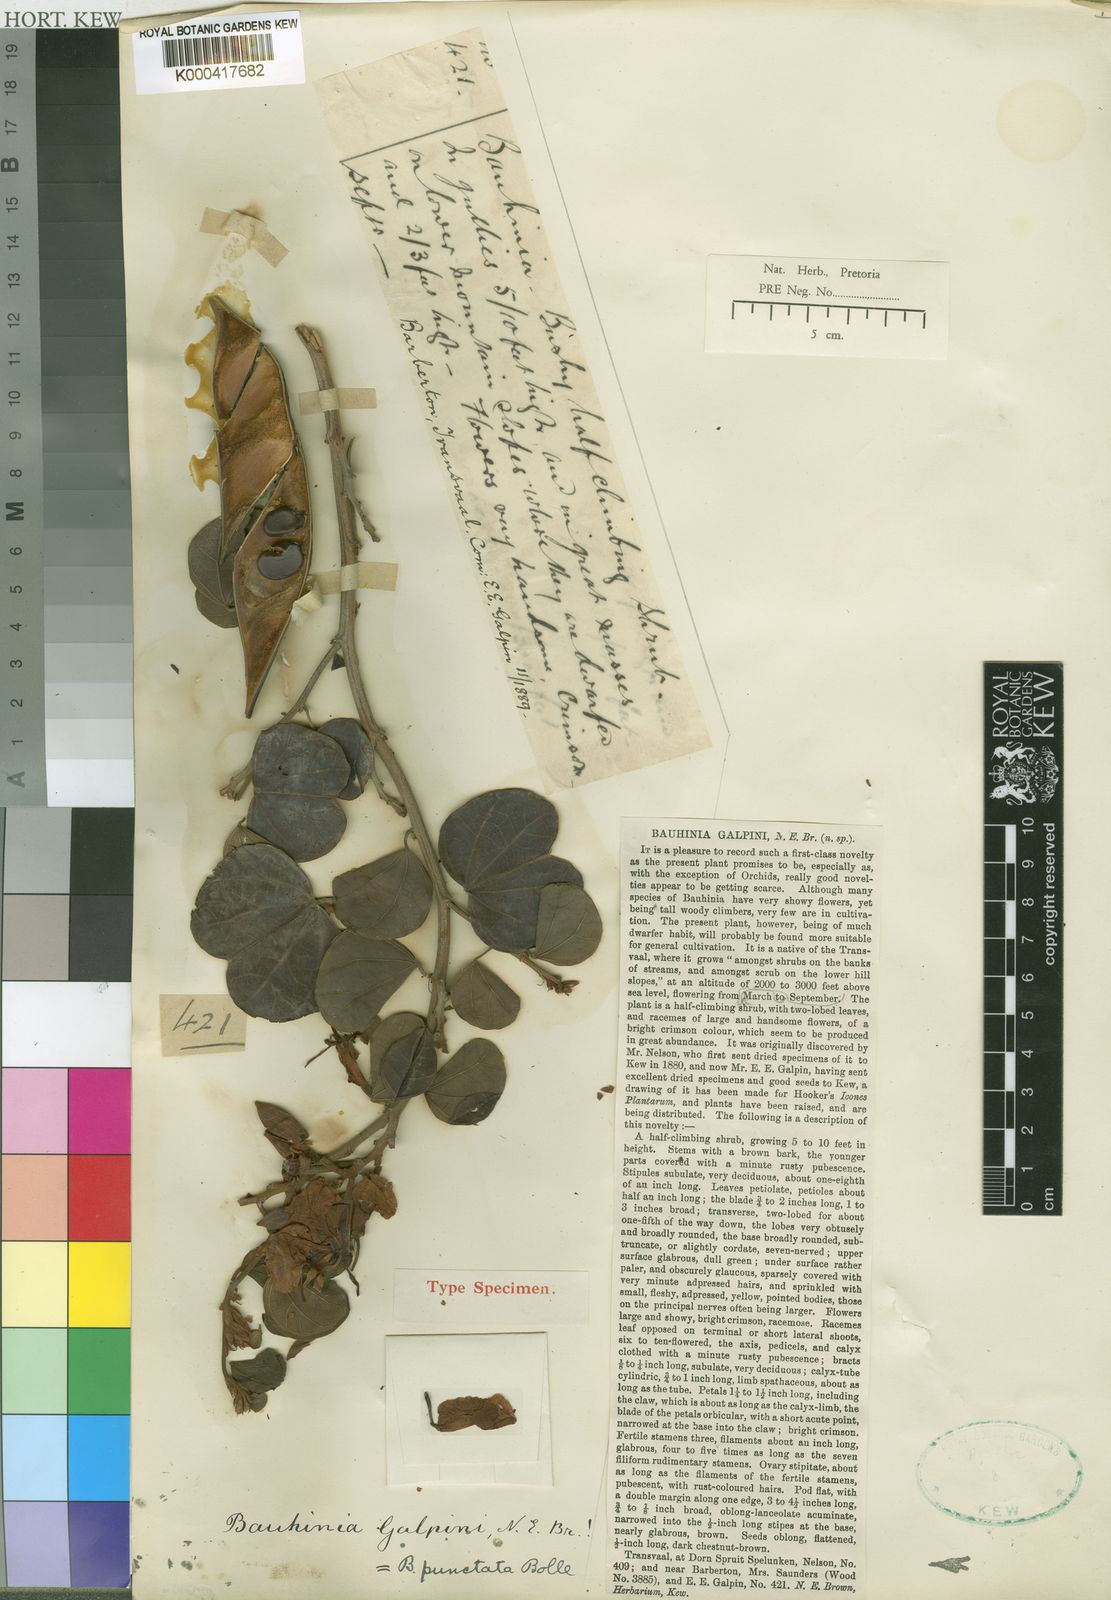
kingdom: Plantae
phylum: Tracheophyta
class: Magnoliopsida
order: Fabales
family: Fabaceae
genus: Bauhinia
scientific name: Bauhinia galpinii
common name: African plume
